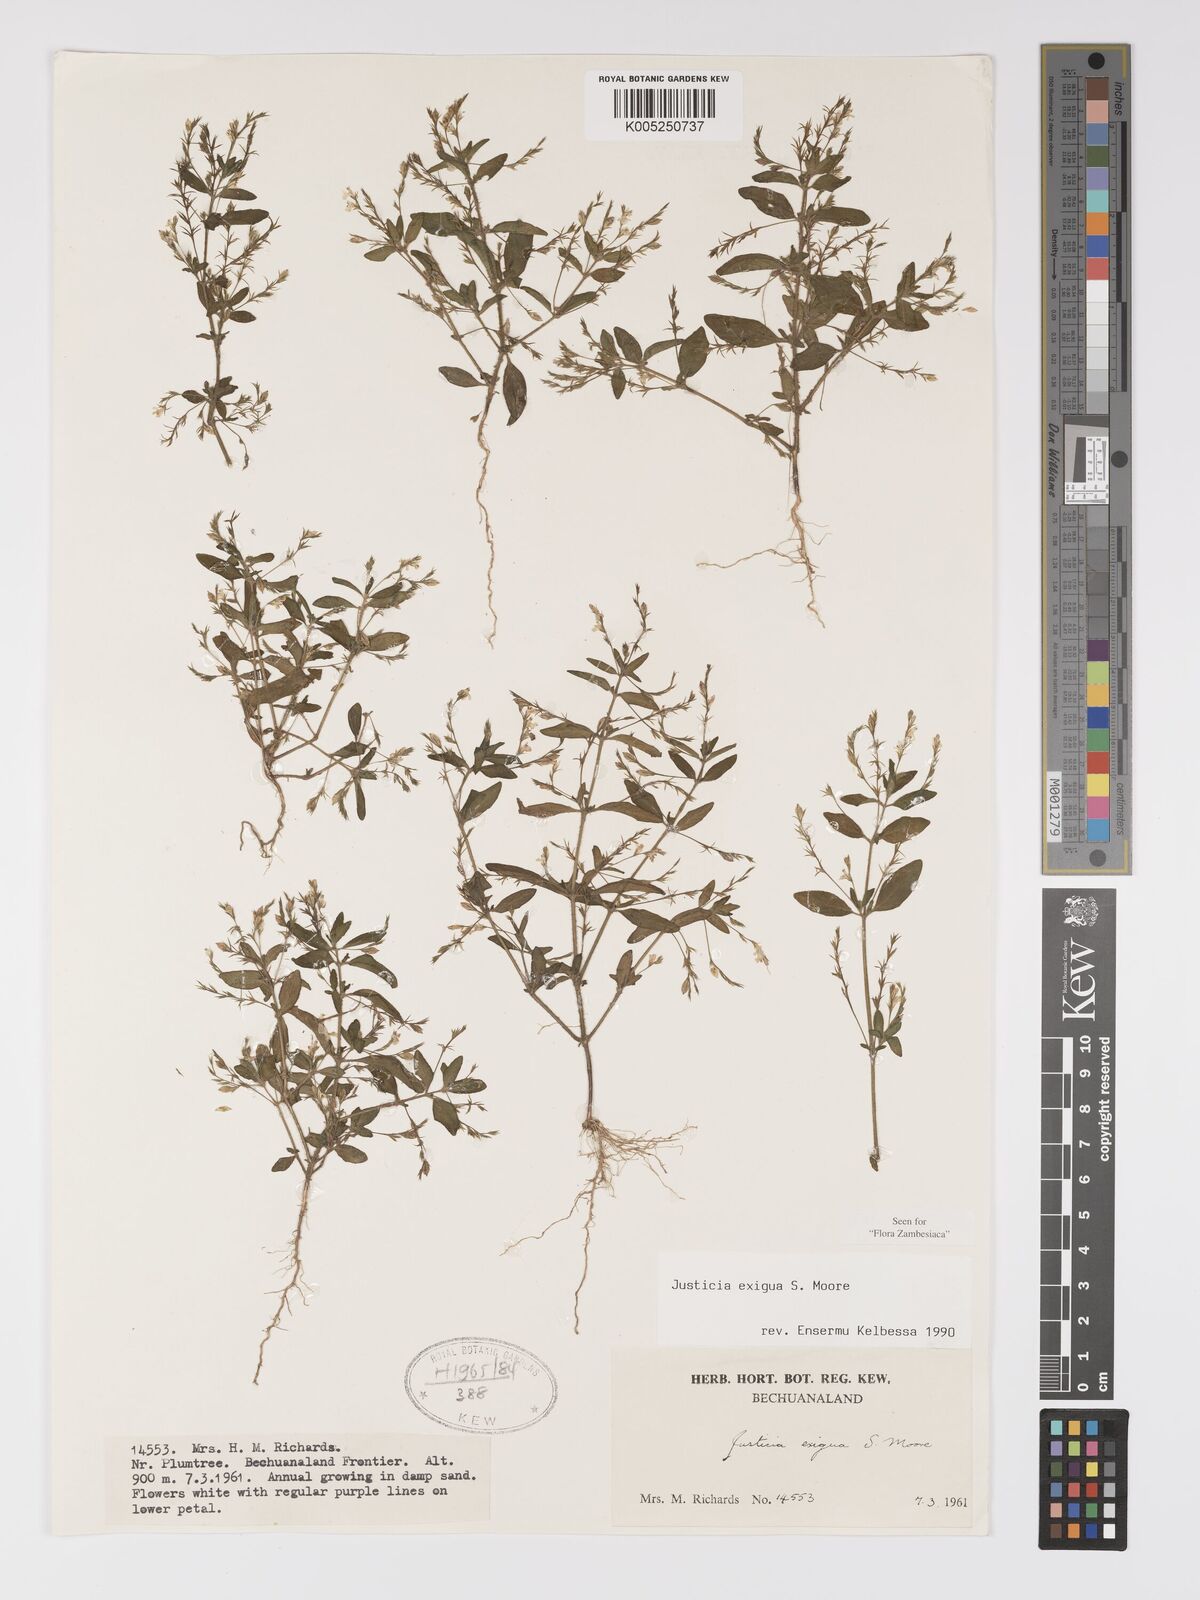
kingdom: Plantae
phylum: Tracheophyta
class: Magnoliopsida
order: Lamiales
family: Acanthaceae
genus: Justicia
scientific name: Justicia exigua
